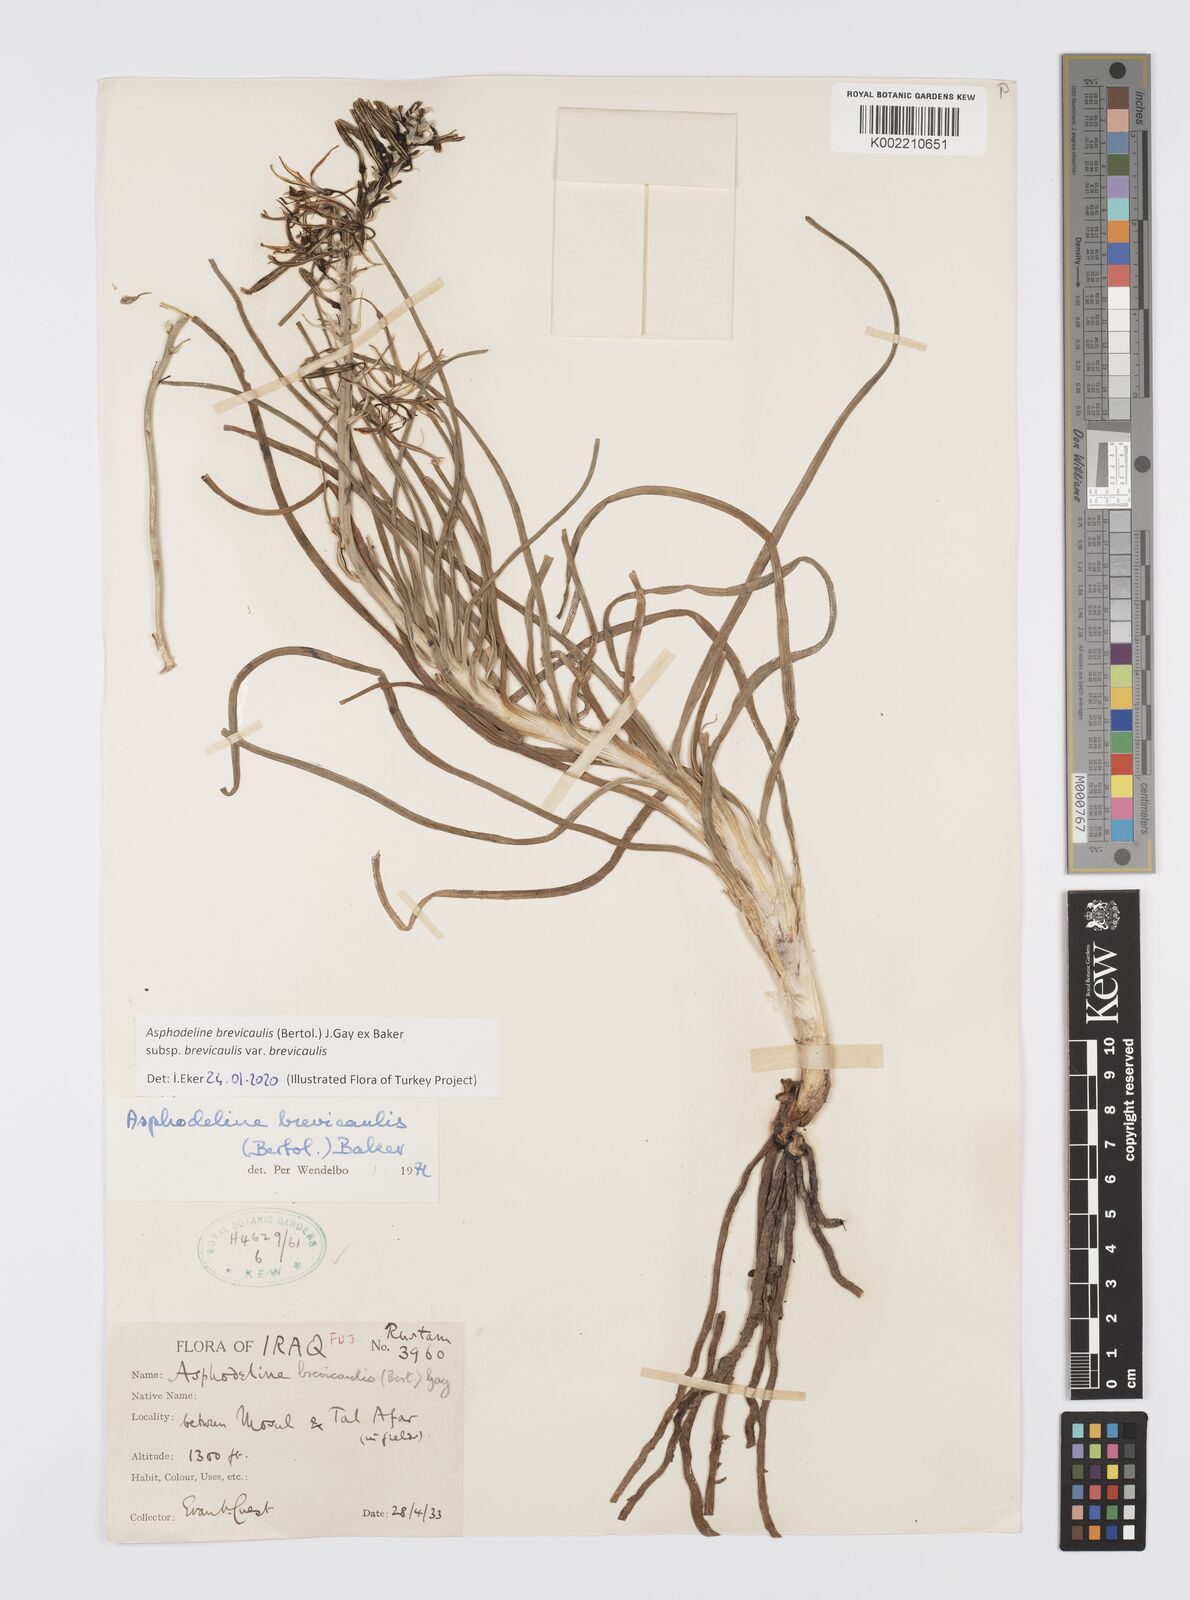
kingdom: Plantae
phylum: Tracheophyta
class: Liliopsida
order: Asparagales
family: Asphodelaceae
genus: Asphodeline
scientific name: Asphodeline brevicaulis
